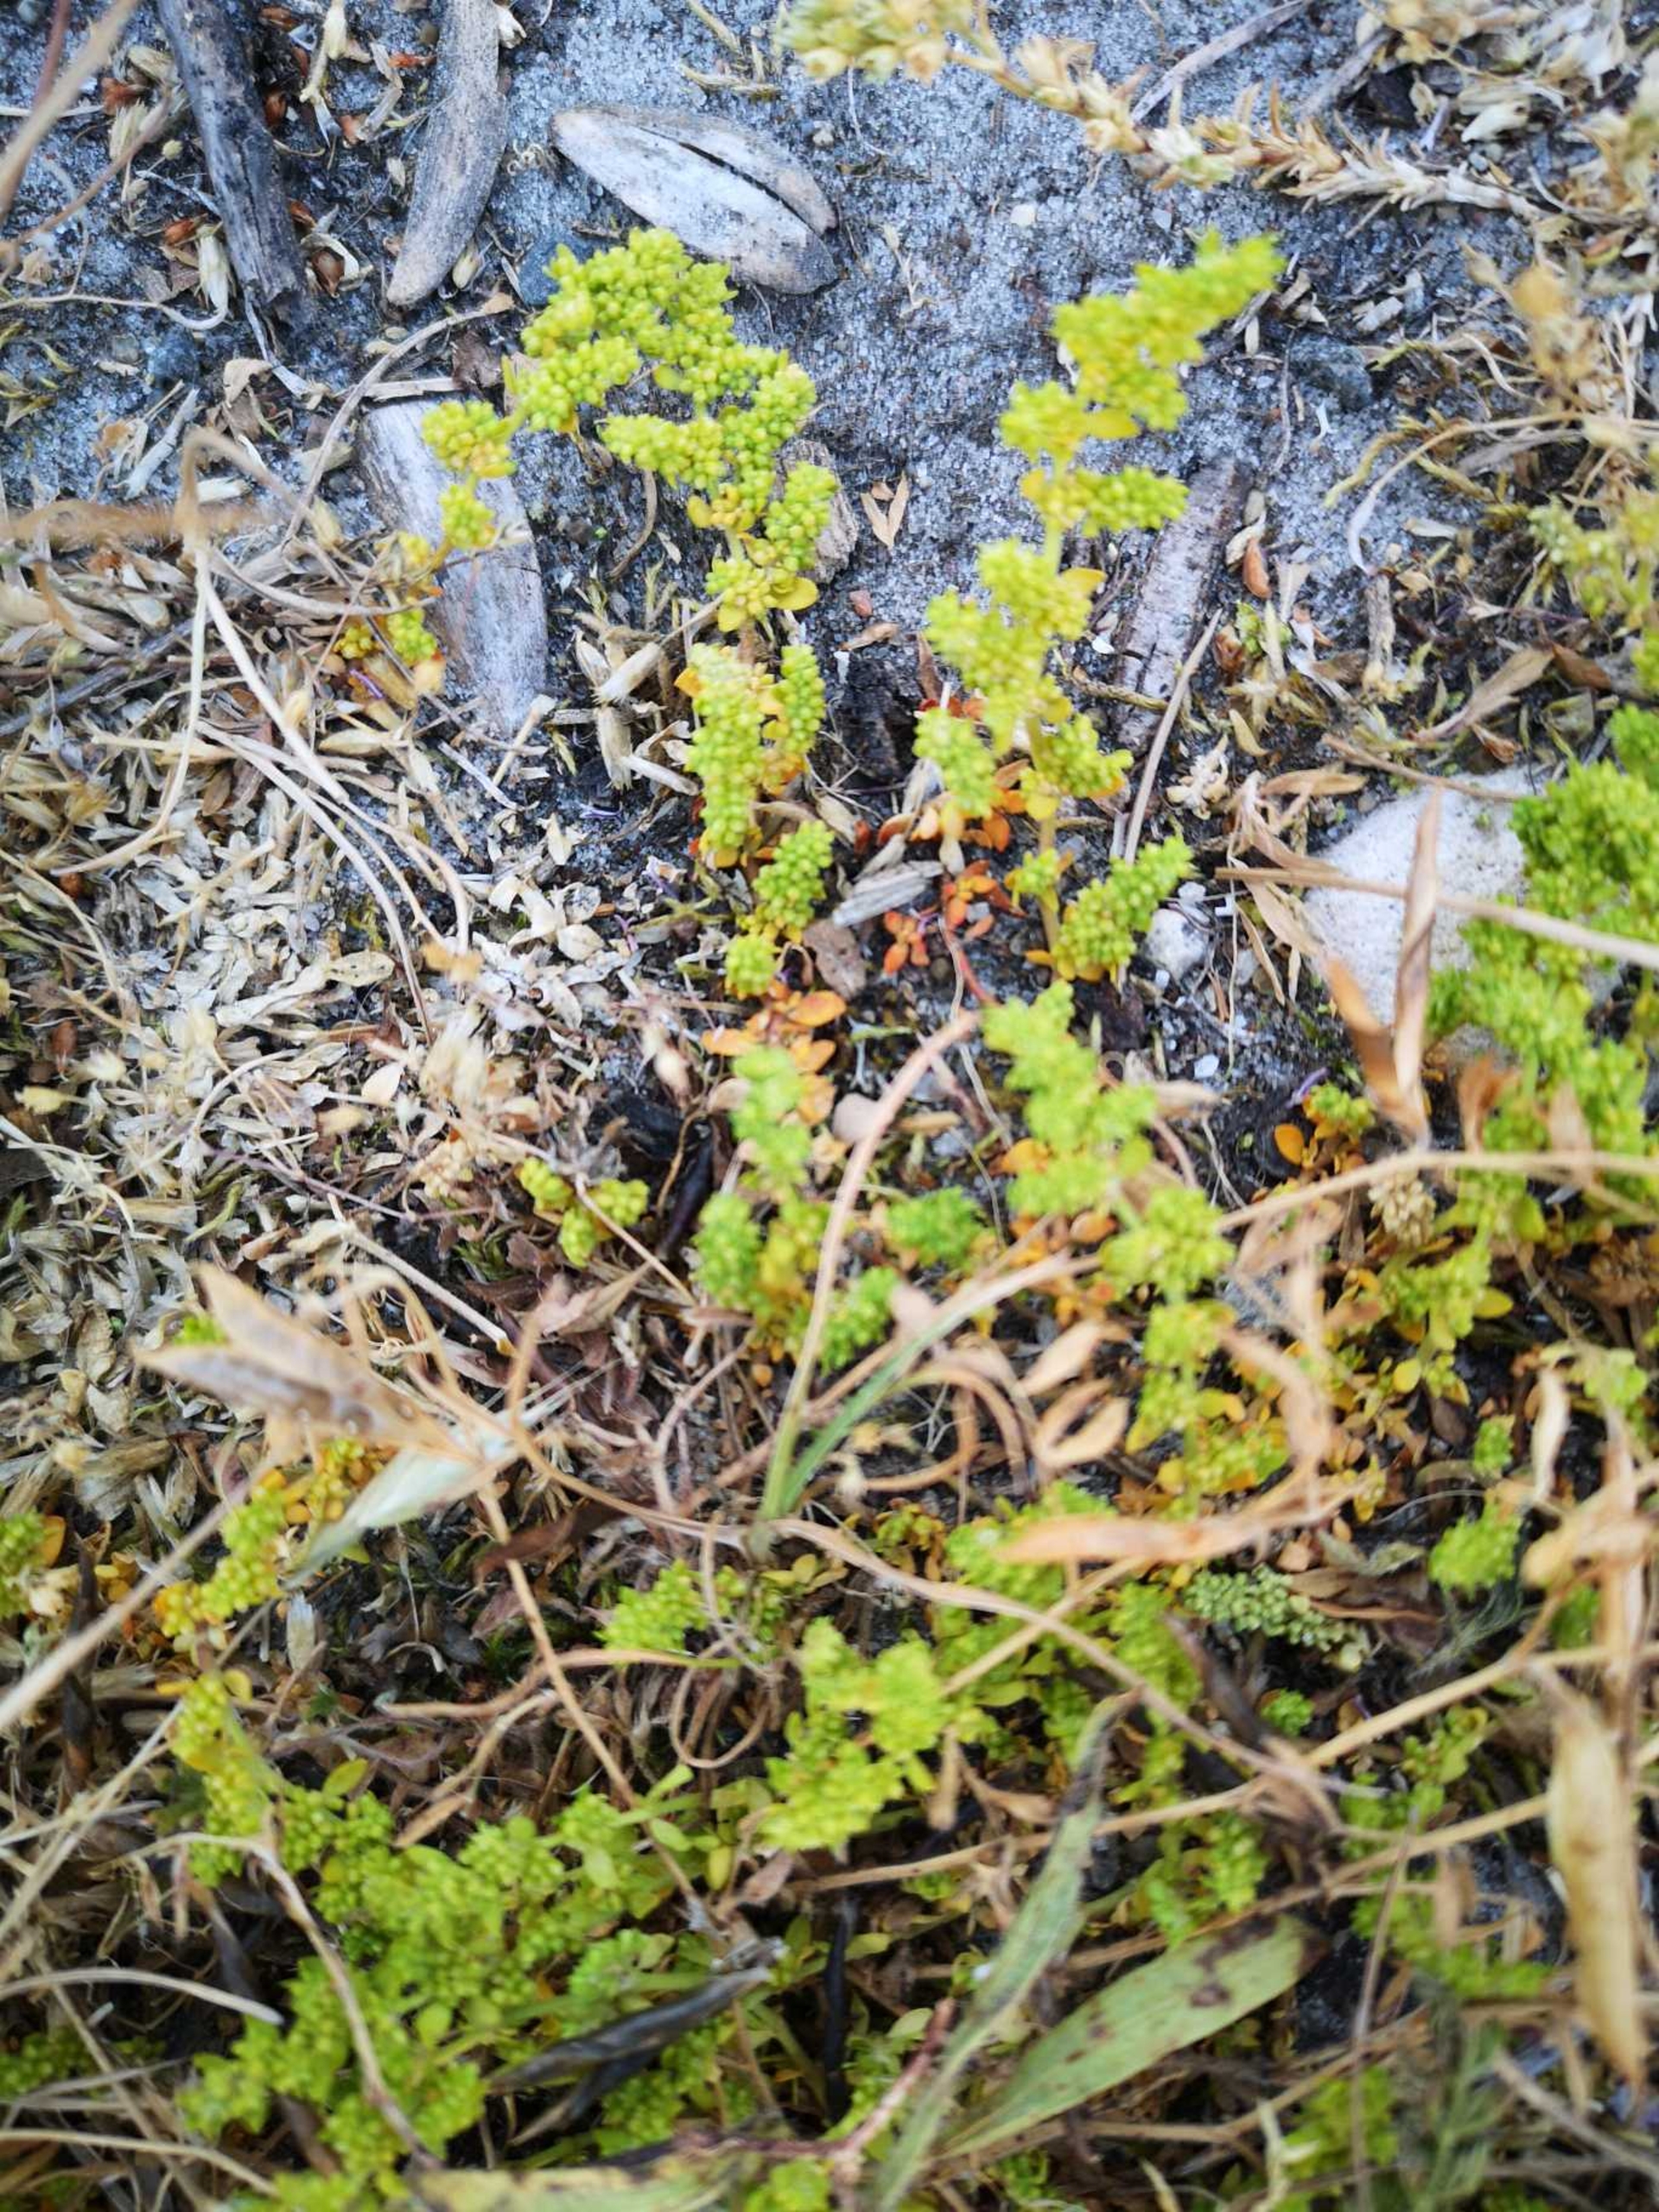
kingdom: Plantae
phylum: Tracheophyta
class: Magnoliopsida
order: Caryophyllales
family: Caryophyllaceae
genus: Herniaria
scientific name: Herniaria glabra
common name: Brudurt
